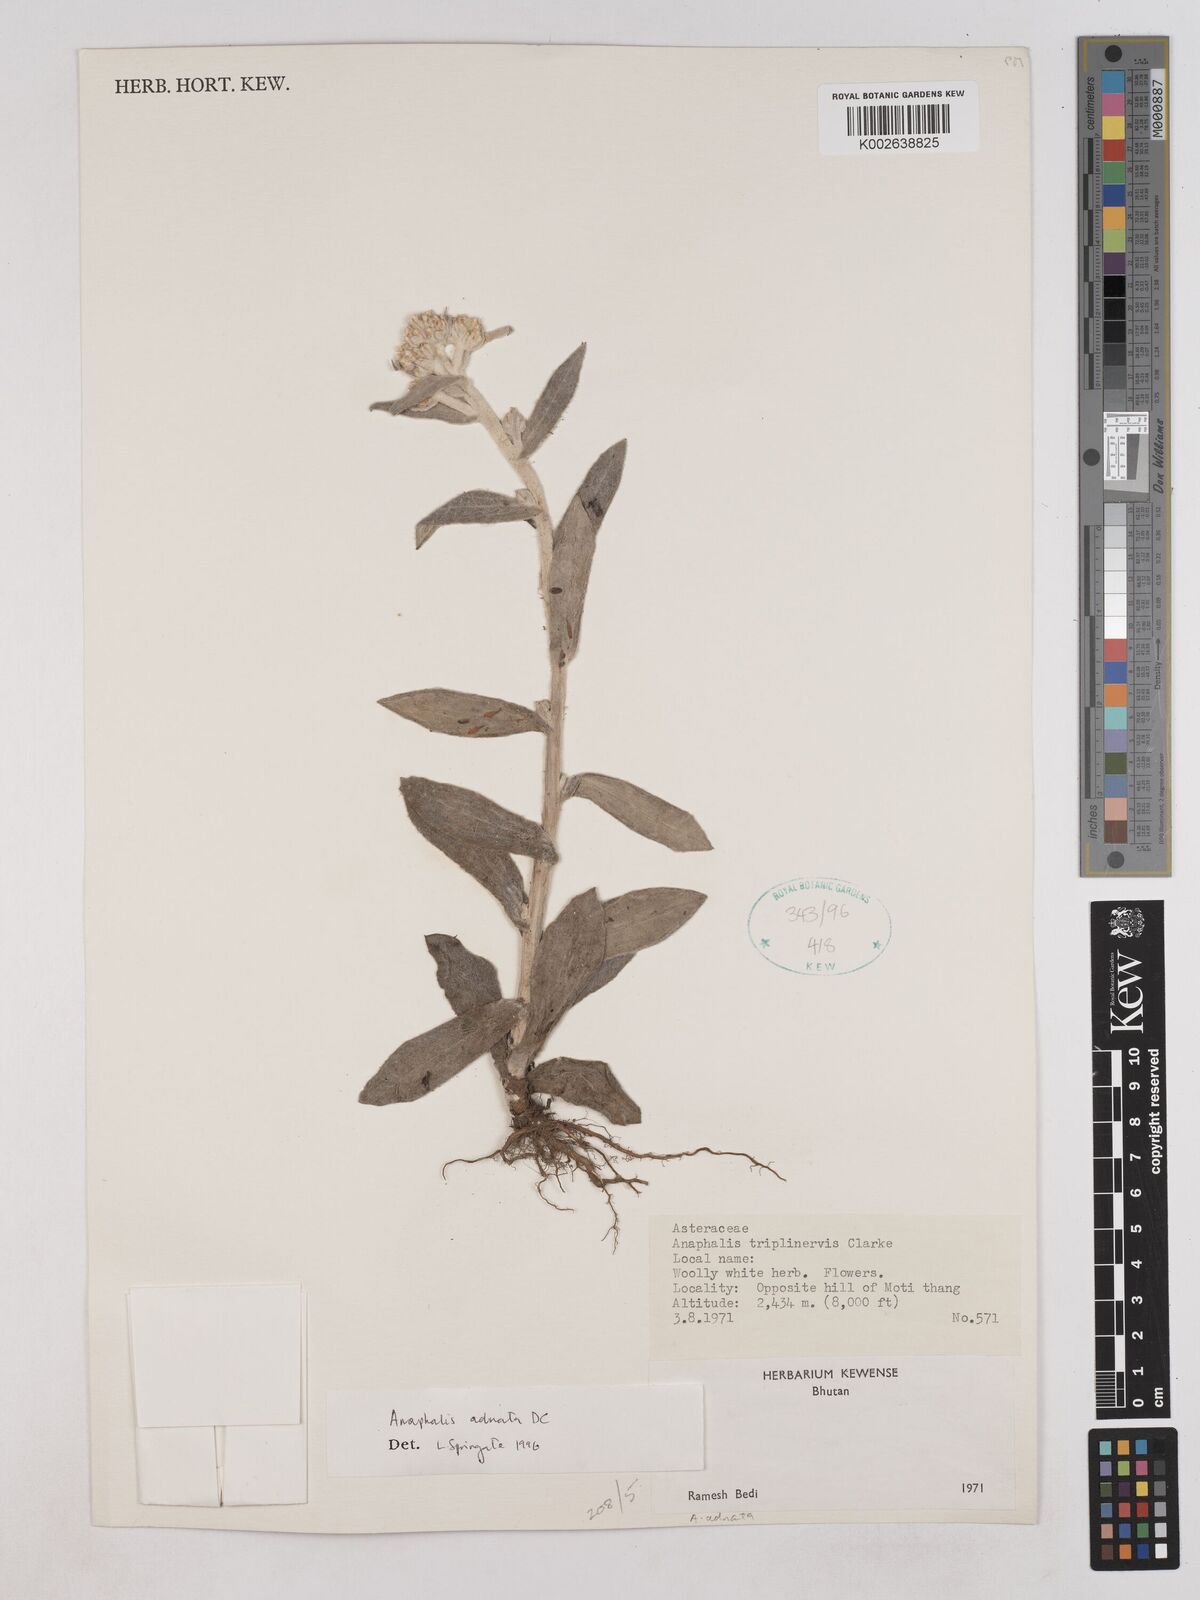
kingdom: Plantae
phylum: Tracheophyta
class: Magnoliopsida
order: Asterales
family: Asteraceae
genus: Pseudognaphalium
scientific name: Pseudognaphalium adnatum
